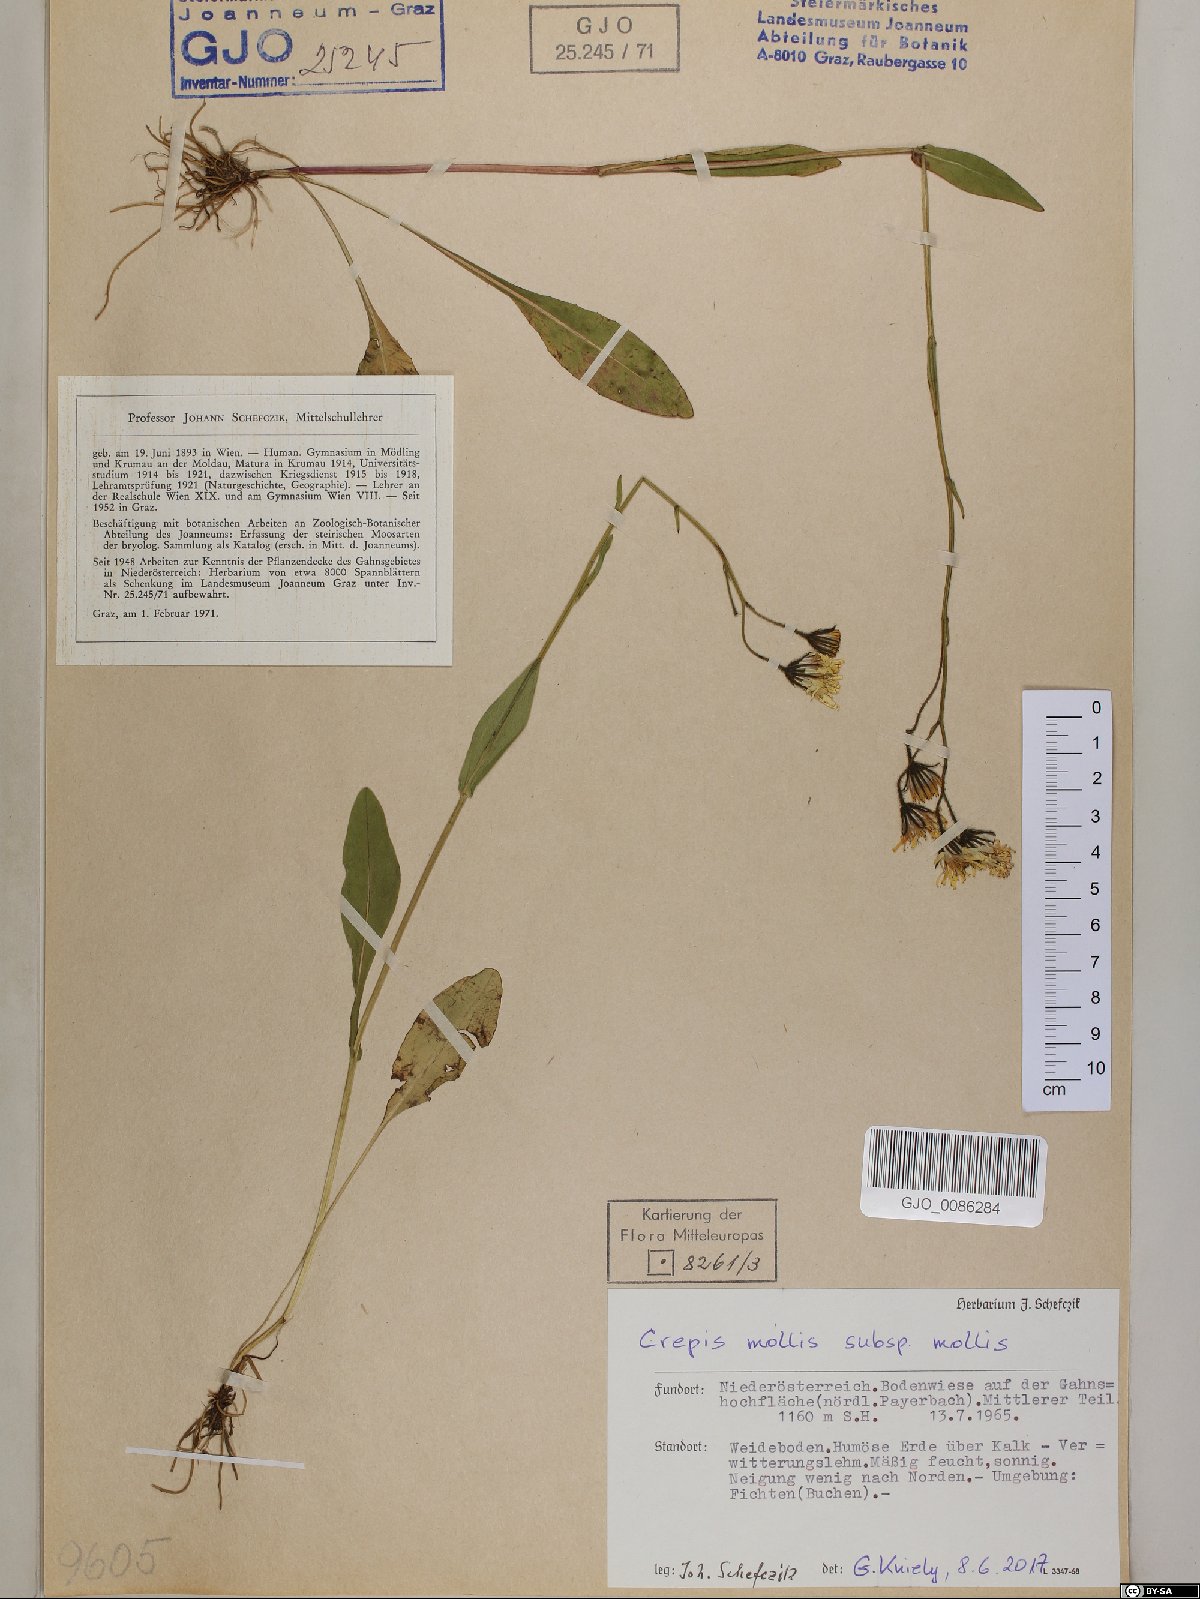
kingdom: Plantae
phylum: Tracheophyta
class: Magnoliopsida
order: Asterales
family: Asteraceae
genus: Crepis
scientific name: Crepis mollis
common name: Northern hawk's-beard
